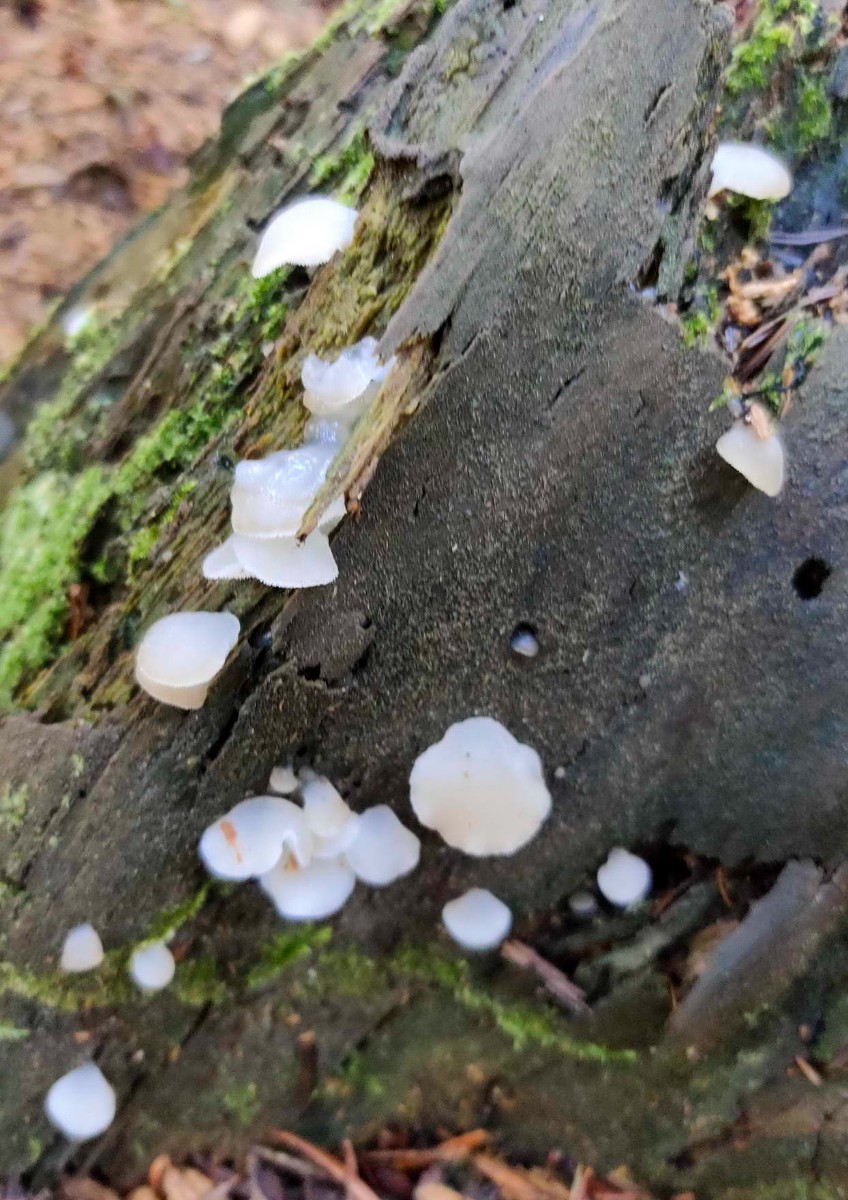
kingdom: Fungi
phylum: Basidiomycota
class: Agaricomycetes
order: Auriculariales
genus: Pseudohydnum
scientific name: Pseudohydnum gelatinosum
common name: bævretand
